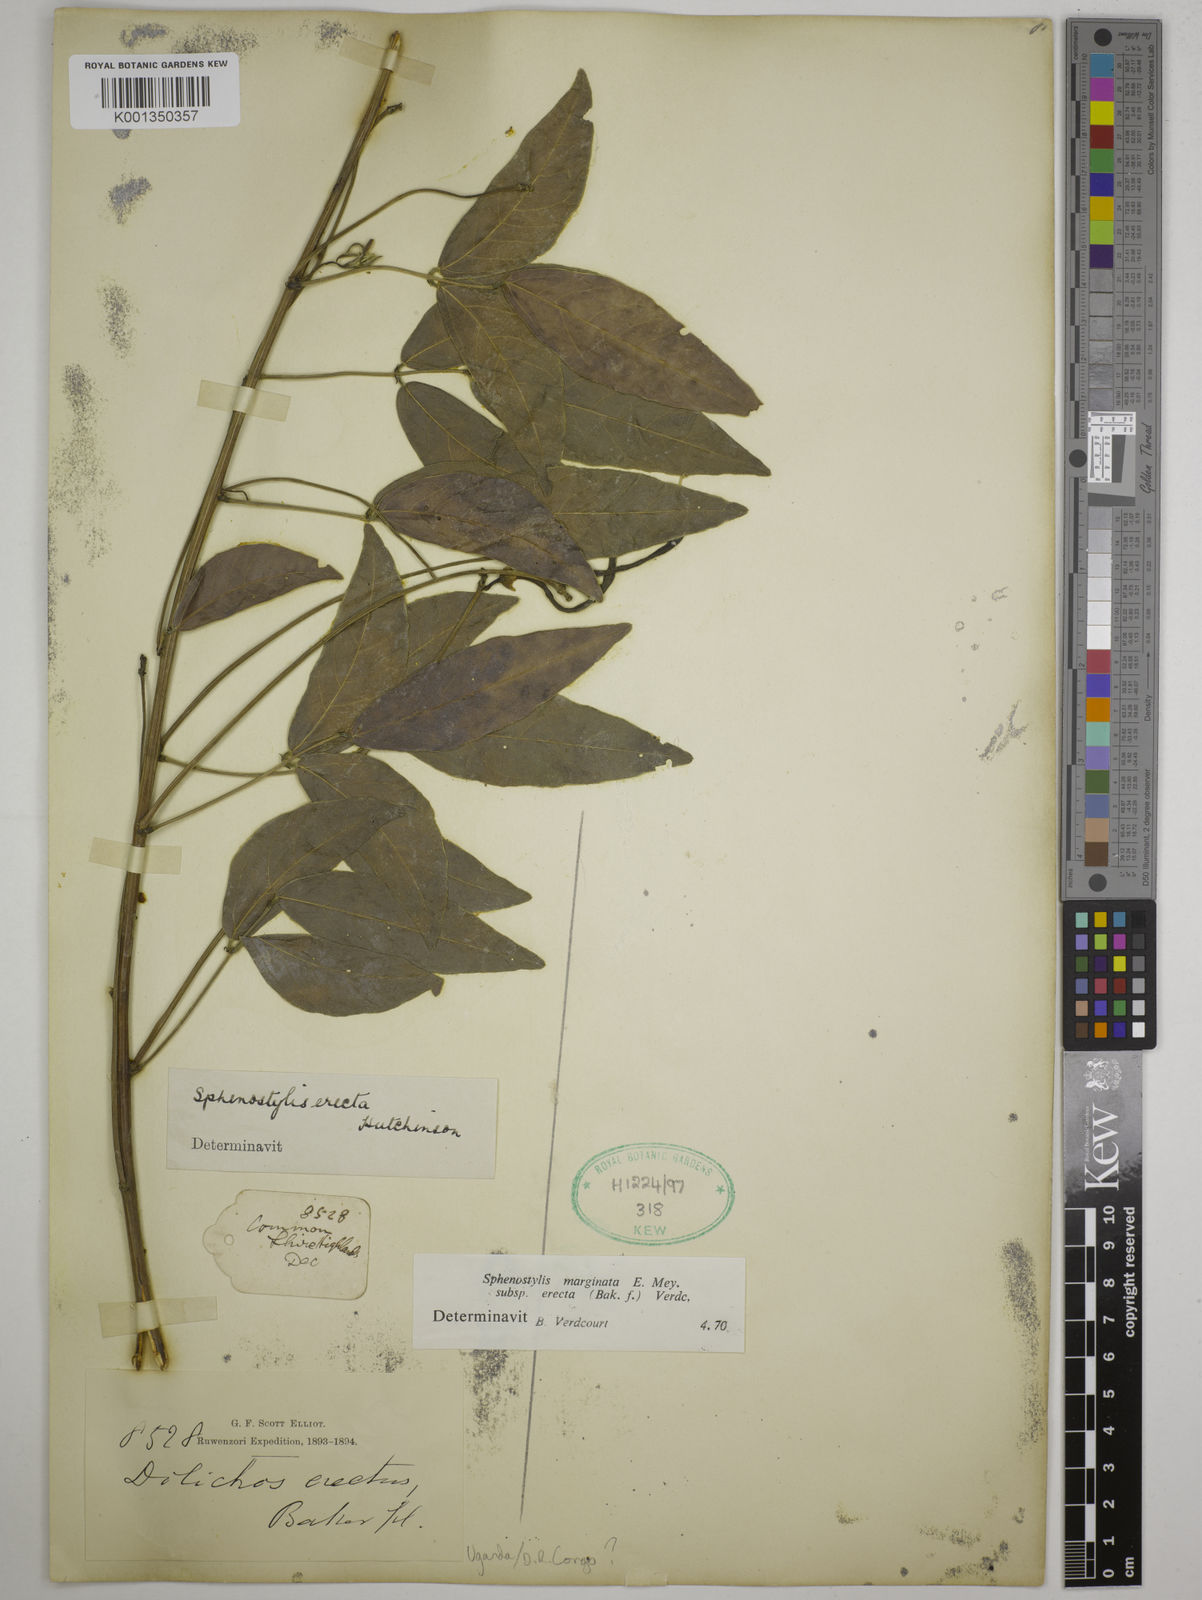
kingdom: Plantae
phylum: Tracheophyta
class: Magnoliopsida
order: Fabales
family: Fabaceae
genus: Sphenostylis
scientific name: Sphenostylis erecta
